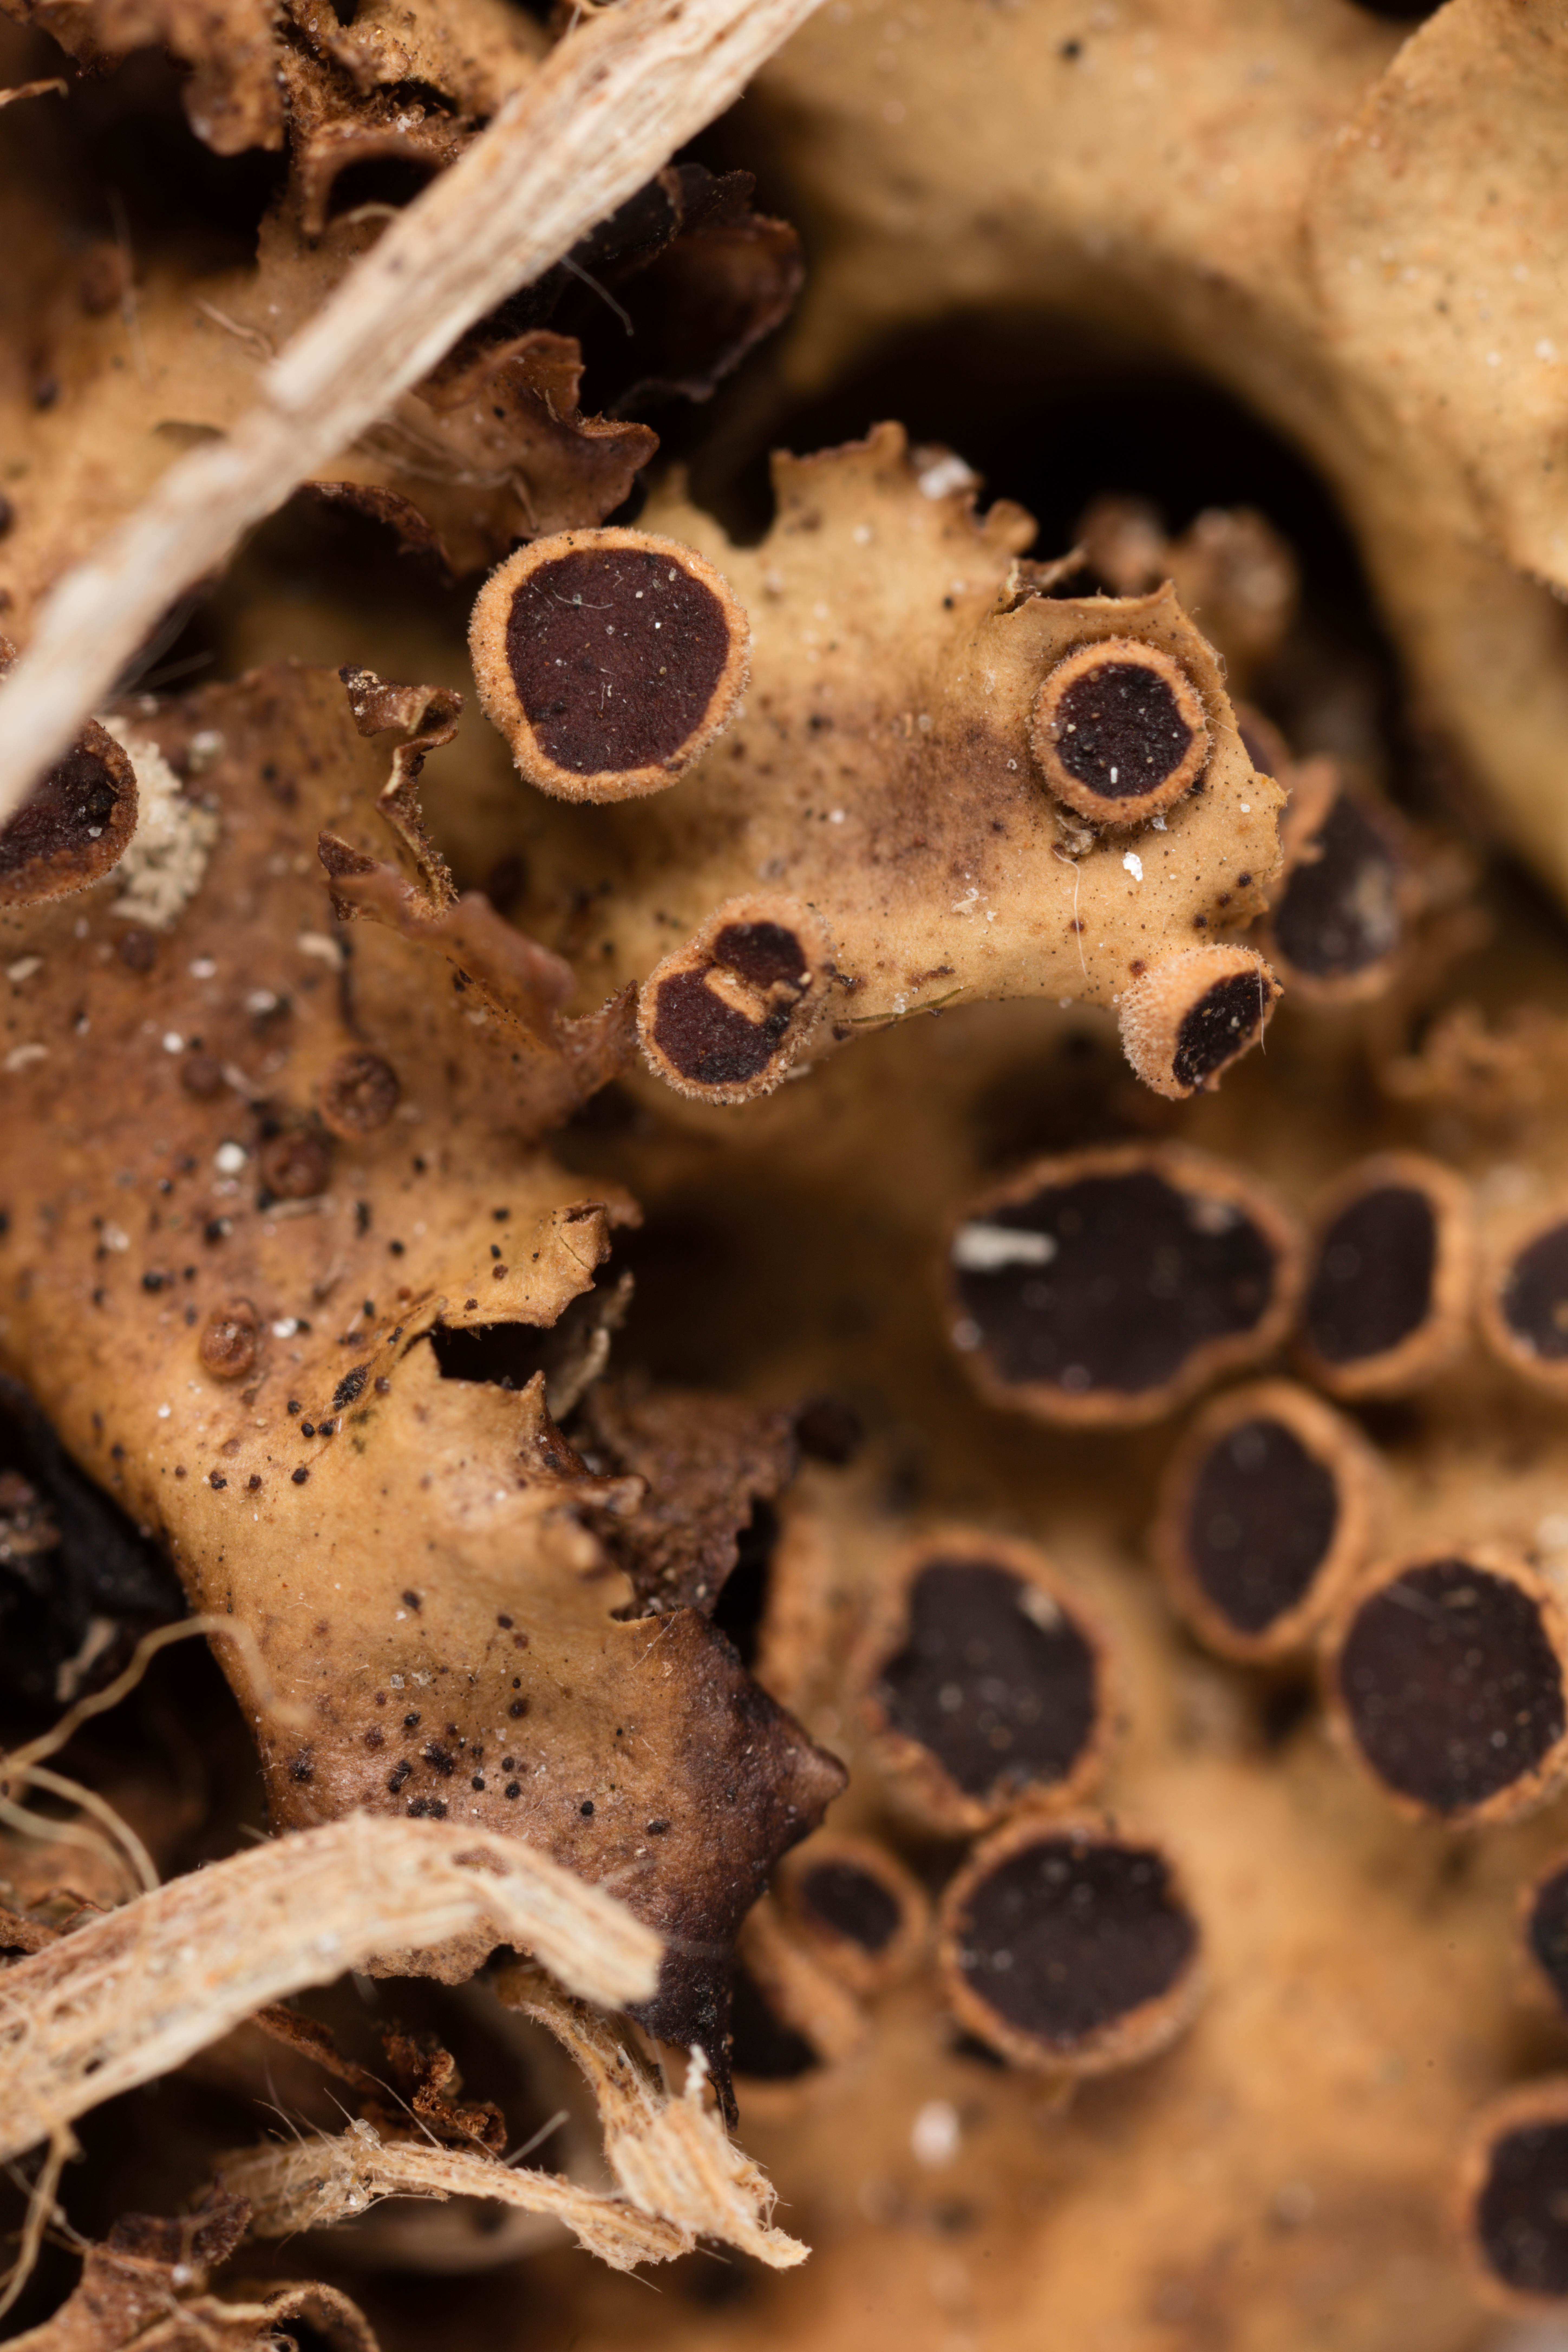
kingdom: Fungi
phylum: Ascomycota
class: Lecanoromycetes
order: Peltigerales
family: Lobariaceae
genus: Sticta
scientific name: Sticta martinii
